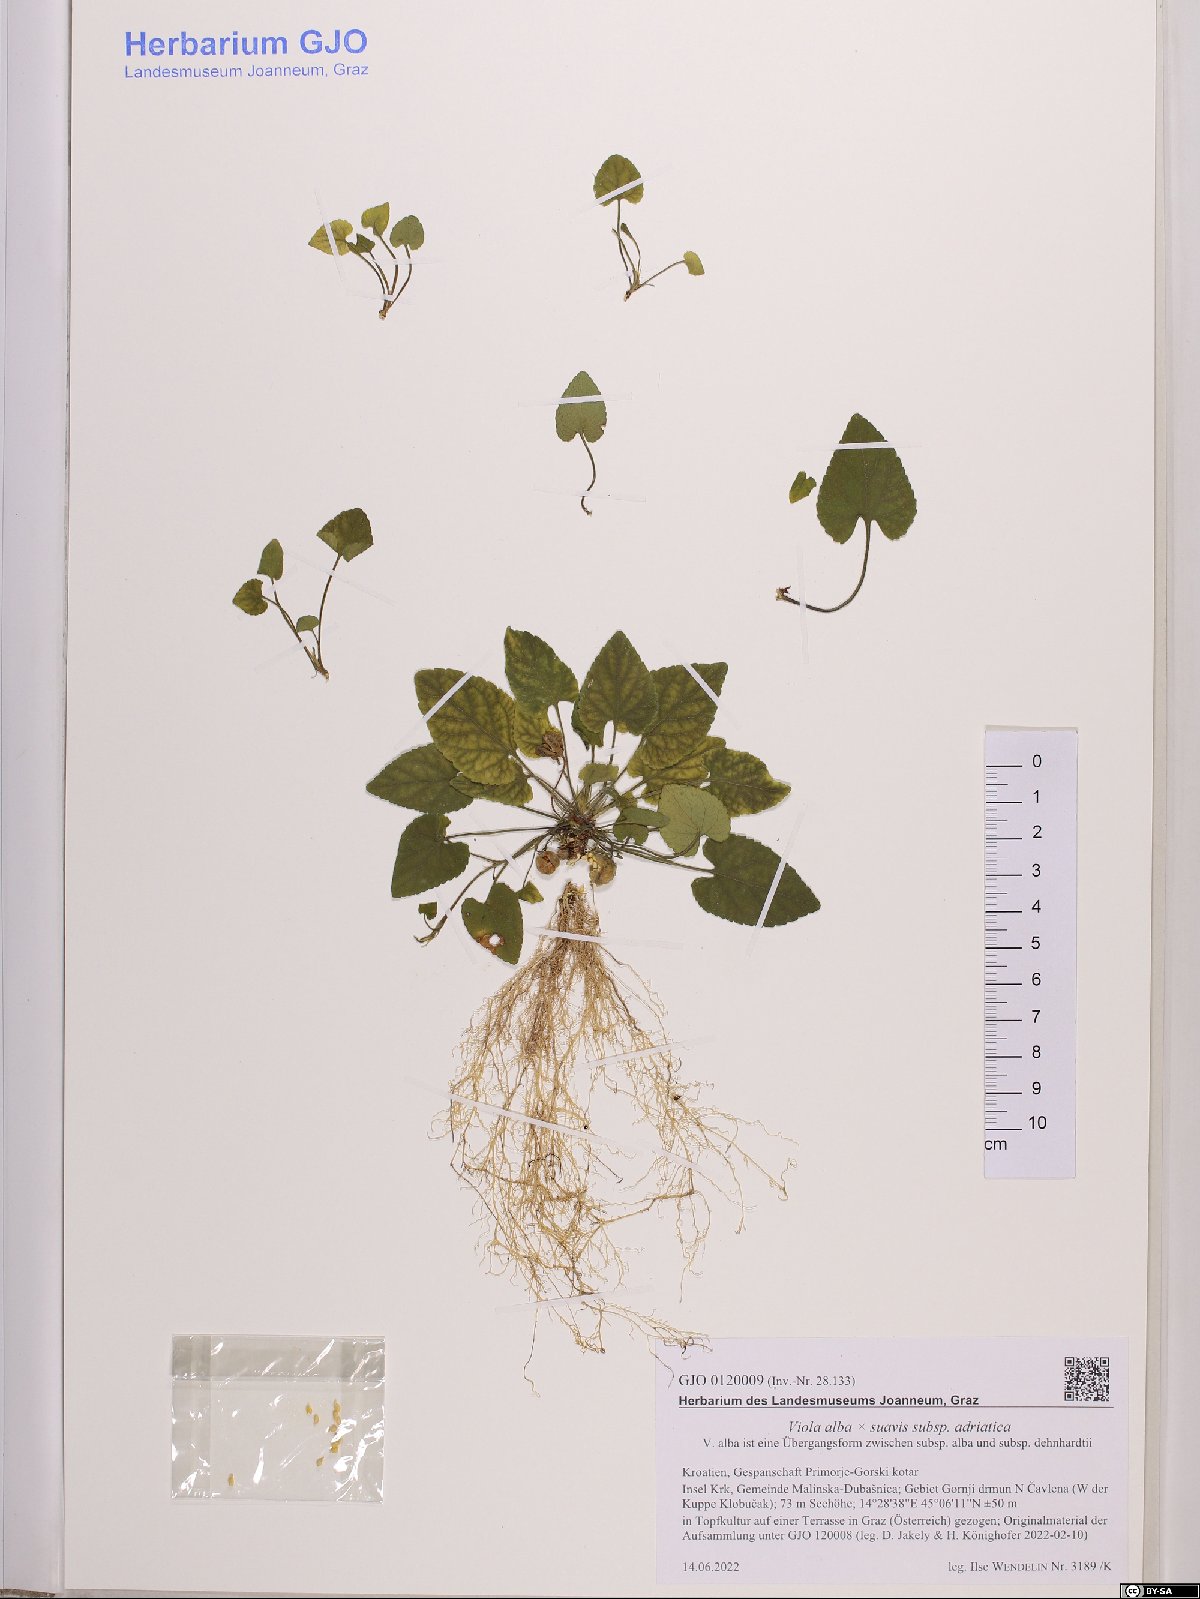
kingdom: Plantae
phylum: Tracheophyta
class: Magnoliopsida
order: Malpighiales
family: Violaceae
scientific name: Violaceae
